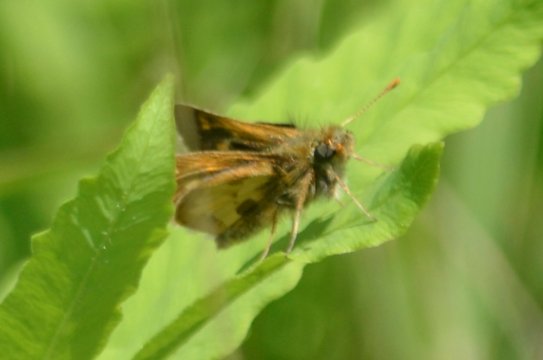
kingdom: Animalia
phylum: Arthropoda
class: Insecta
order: Lepidoptera
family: Hesperiidae
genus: Polites
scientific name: Polites coras
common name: Peck's Skipper
